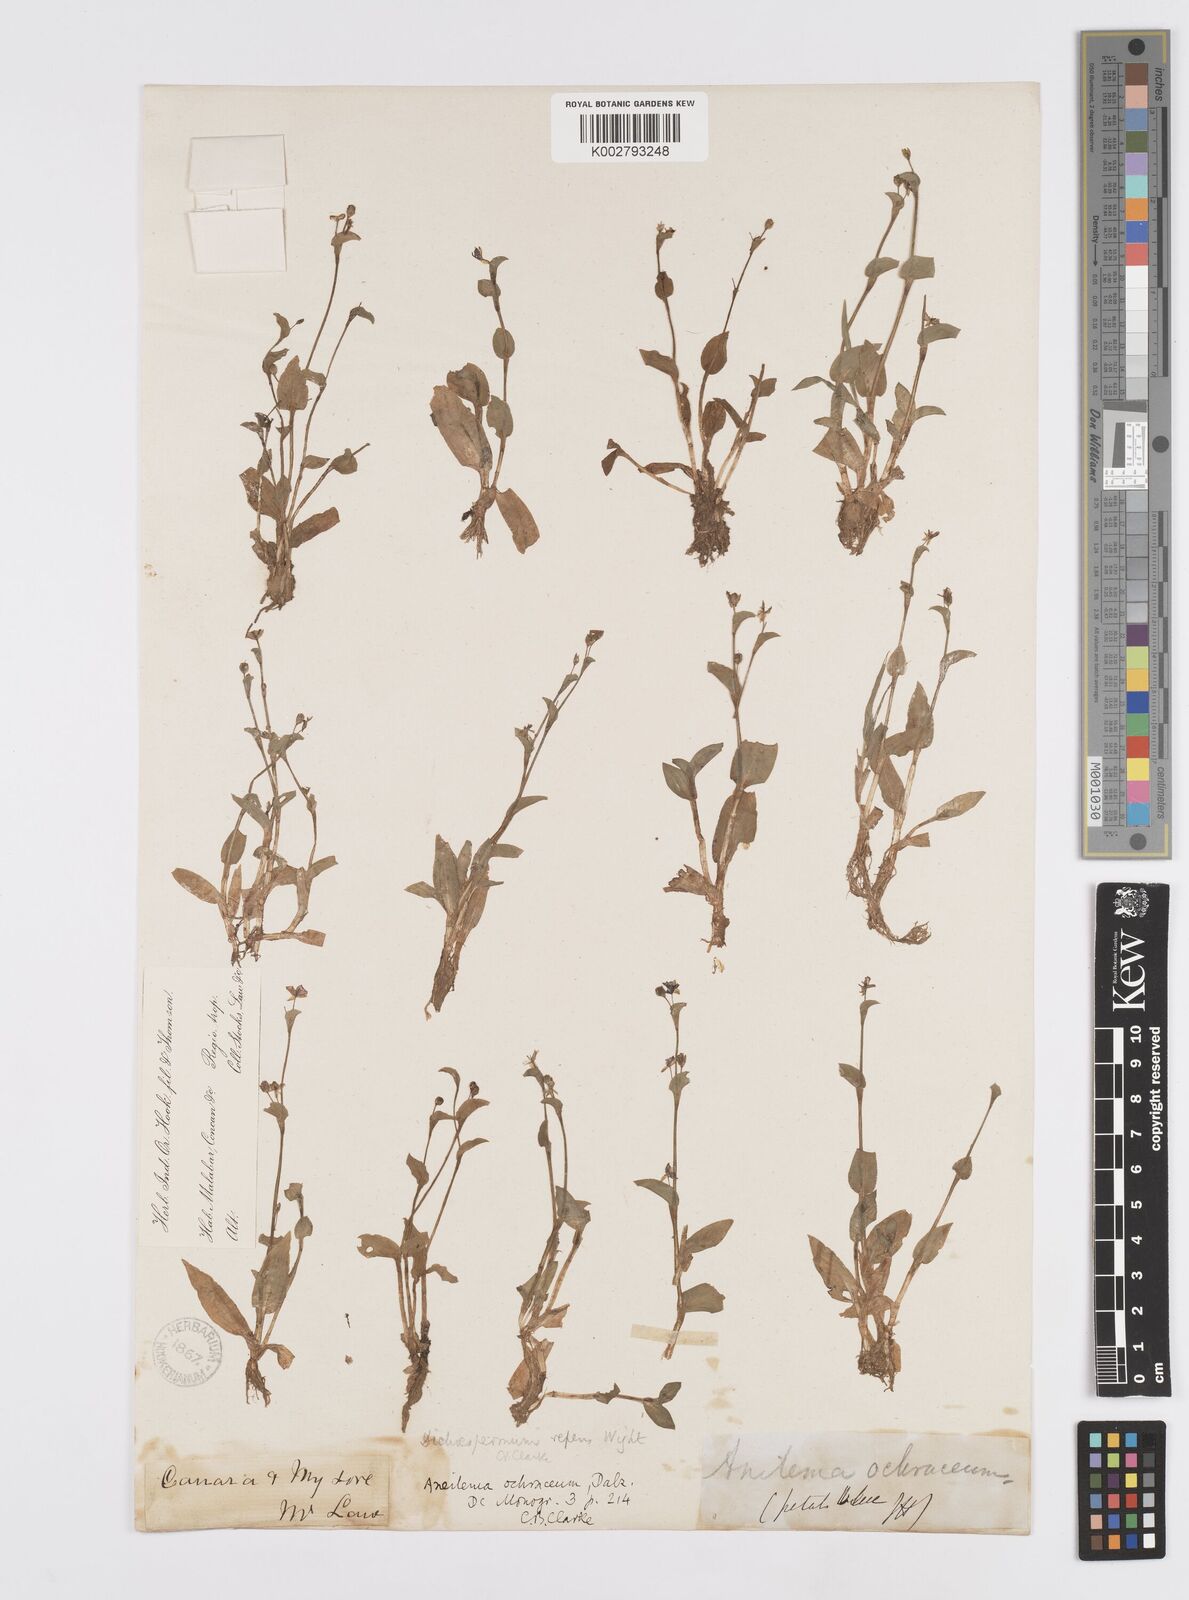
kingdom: Plantae
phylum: Tracheophyta
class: Liliopsida
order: Commelinales
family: Commelinaceae
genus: Murdannia
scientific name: Murdannia
